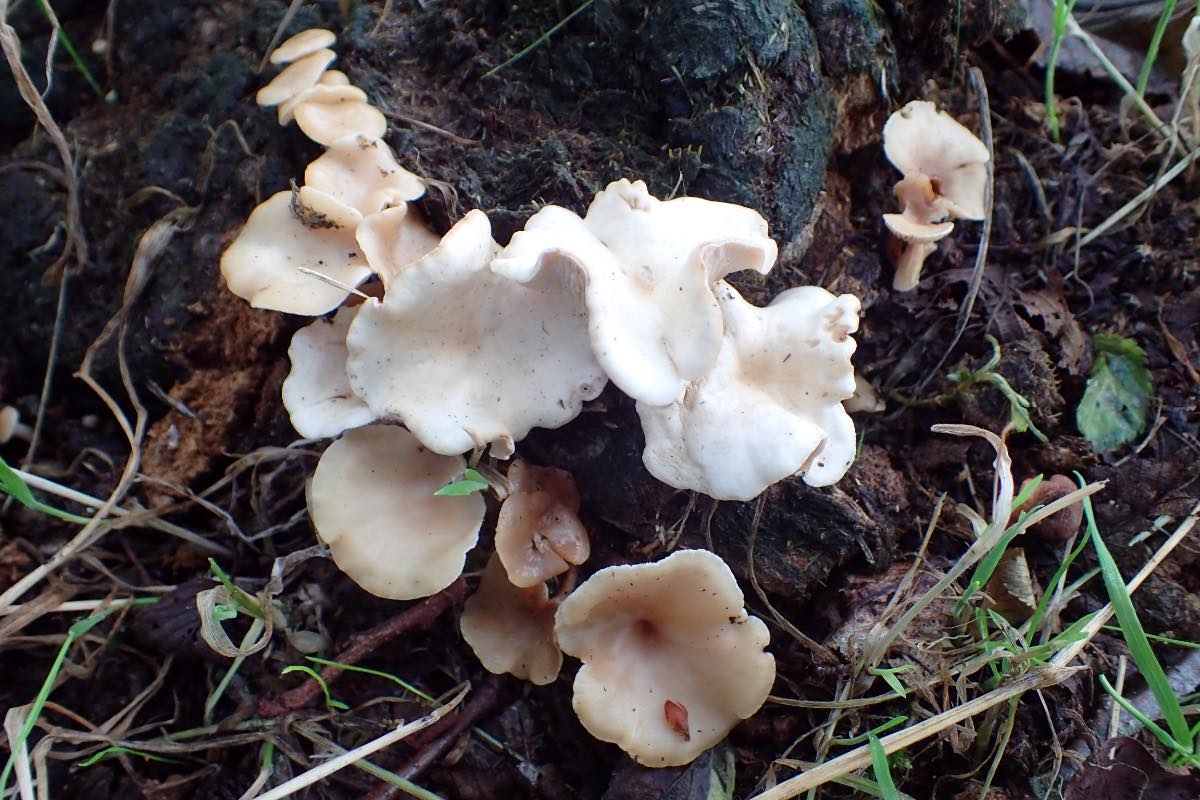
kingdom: Fungi
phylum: Basidiomycota
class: Agaricomycetes
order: Agaricales
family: Tricholomataceae
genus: Clitocybe
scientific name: Clitocybe amarescens
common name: gødnings-tragthat
